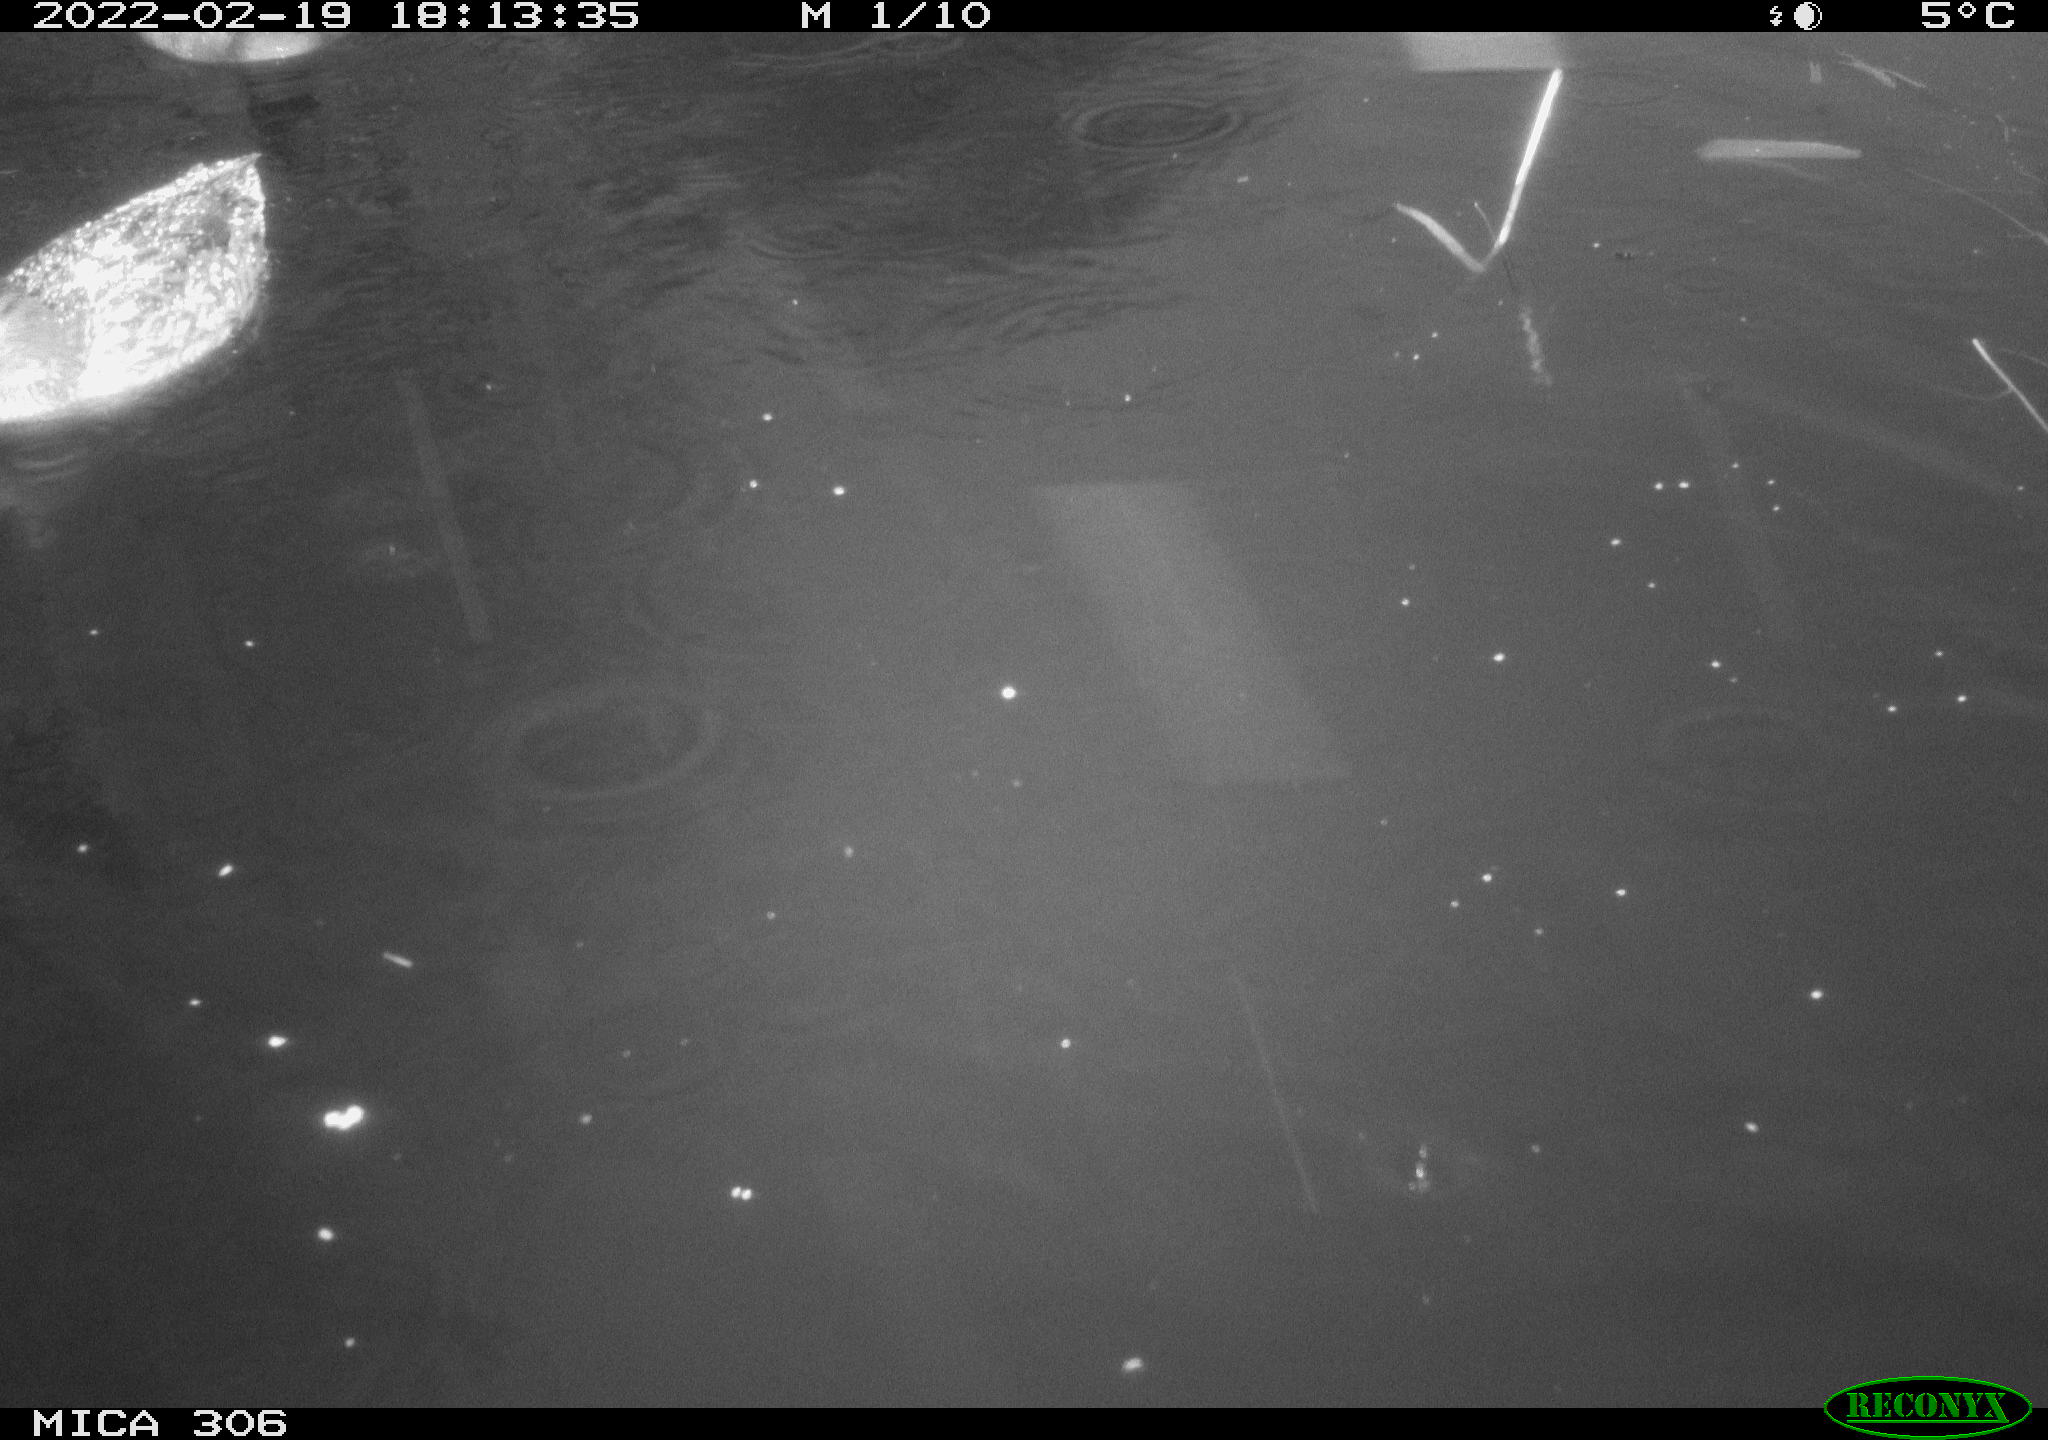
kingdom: Animalia
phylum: Chordata
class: Aves
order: Anseriformes
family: Anatidae
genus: Anas
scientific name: Anas platyrhynchos
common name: Mallard
